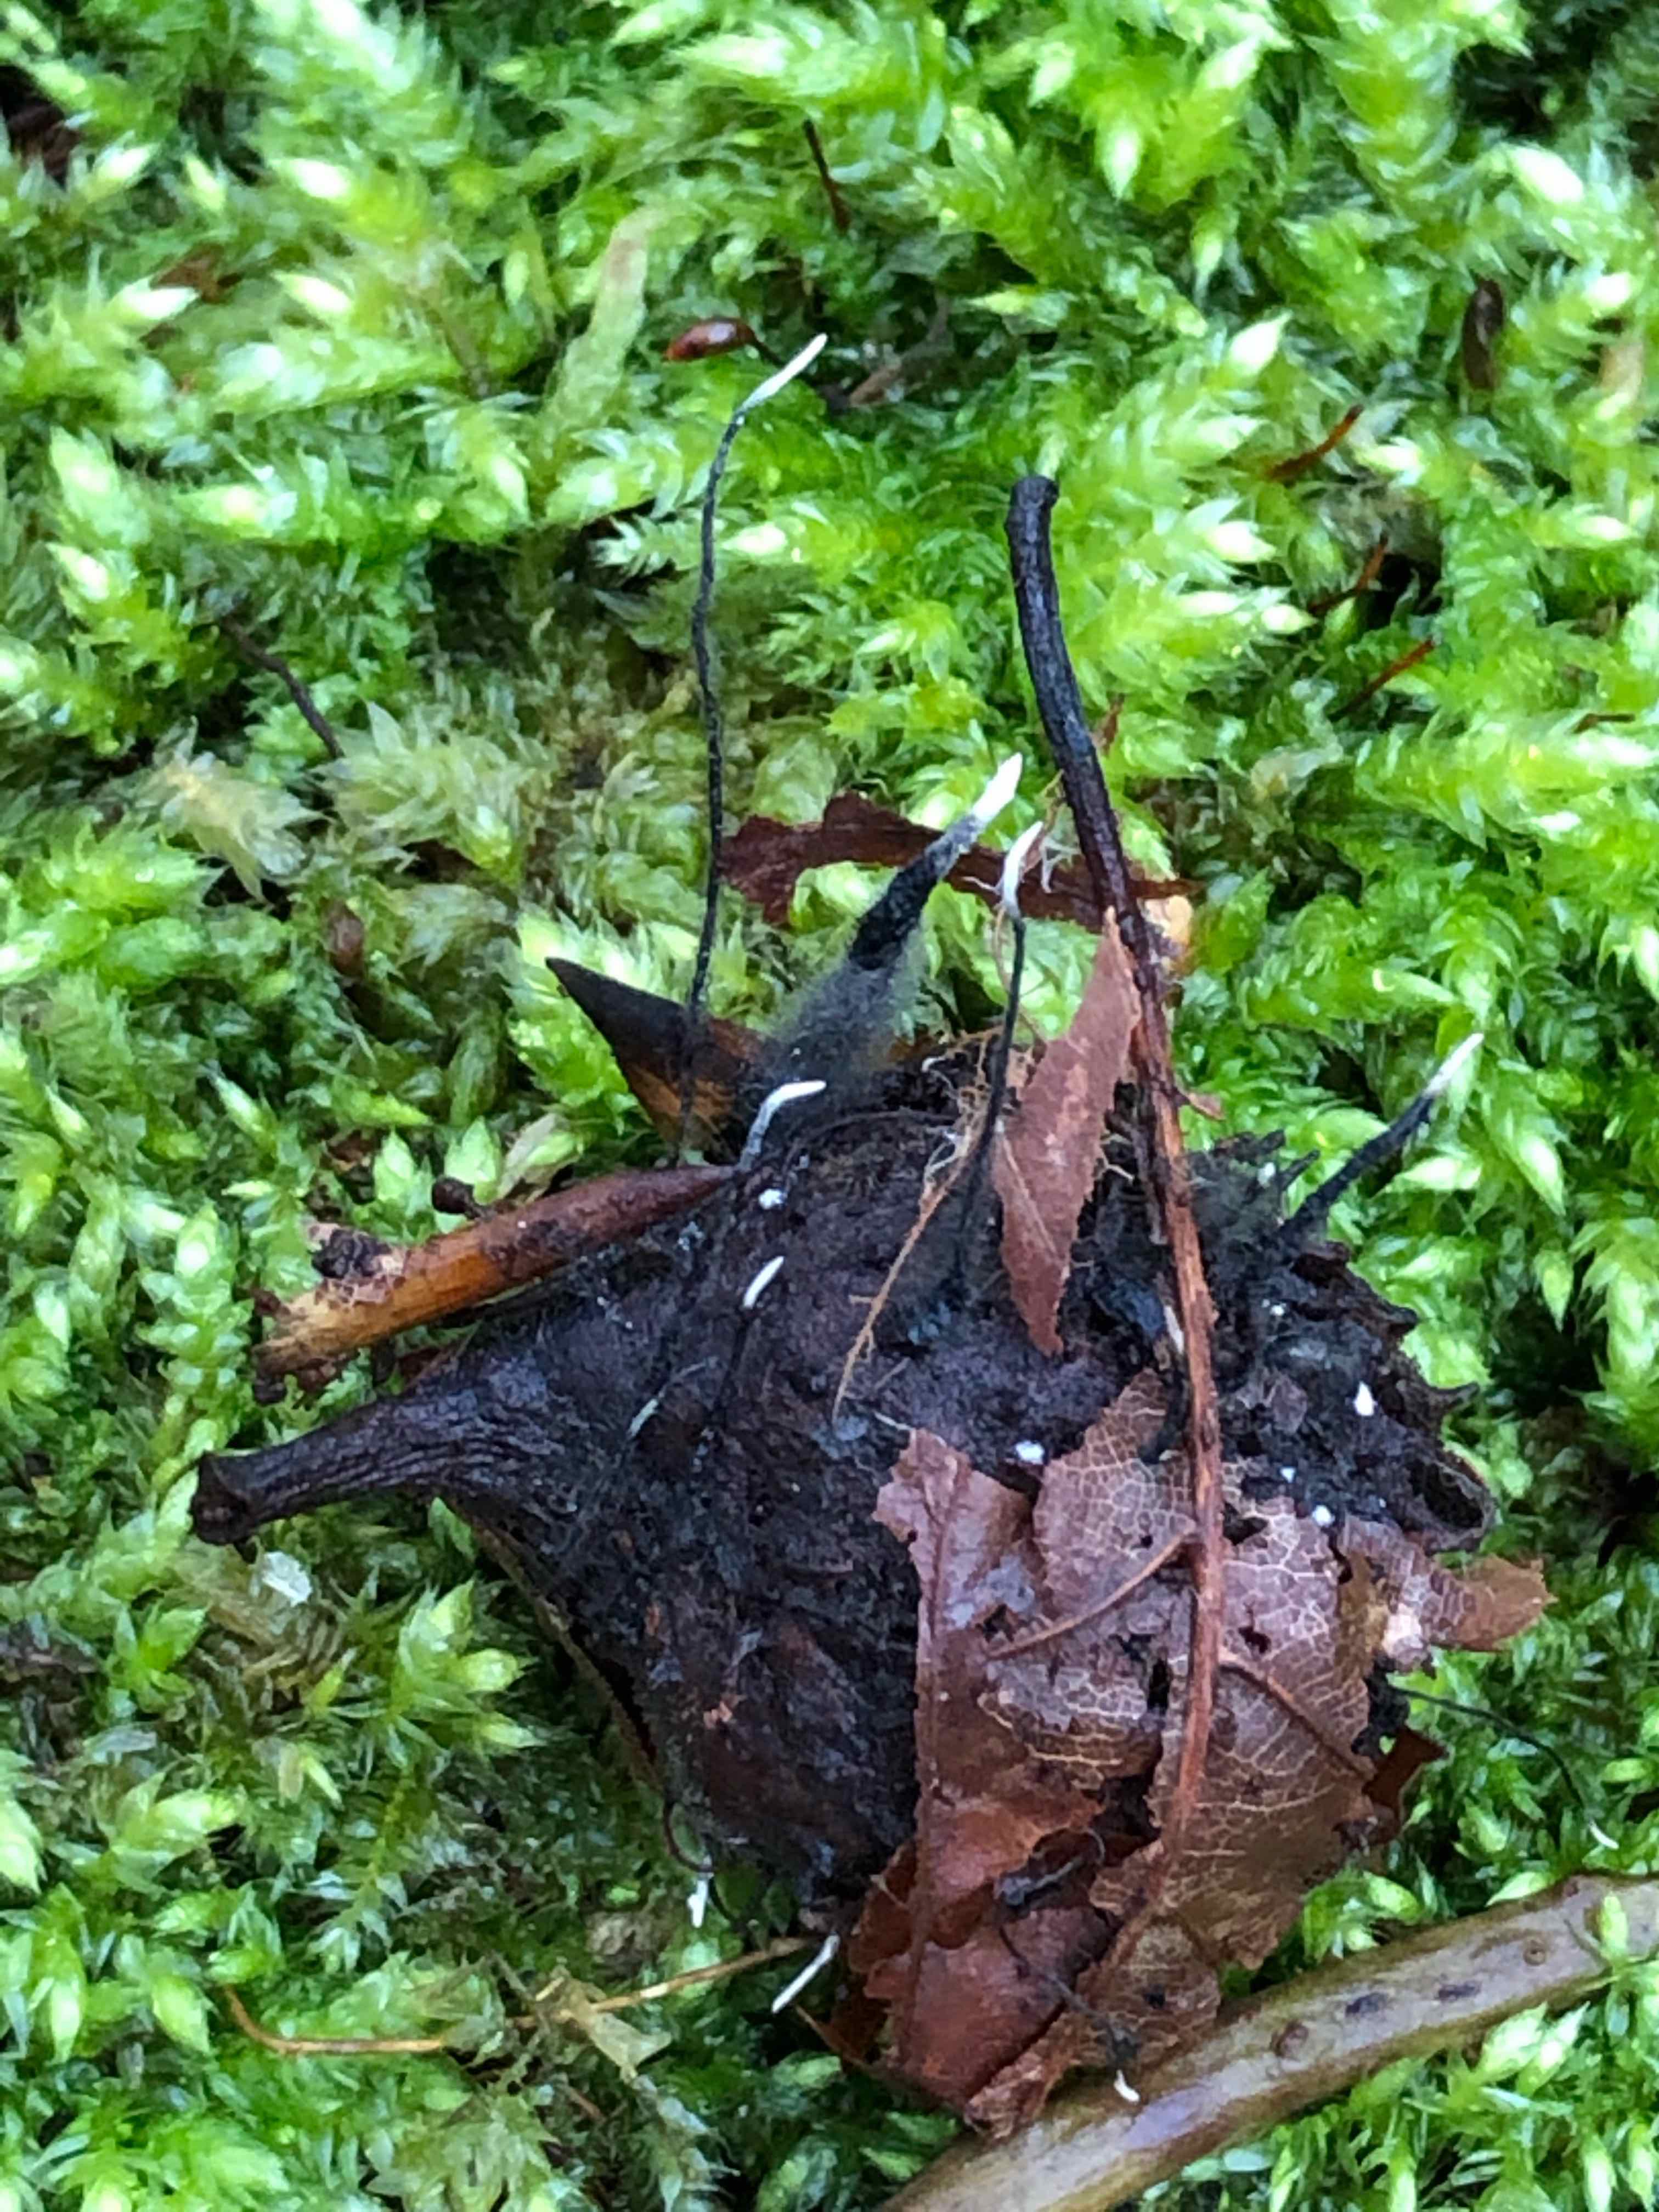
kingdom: Fungi
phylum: Ascomycota
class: Sordariomycetes
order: Xylariales
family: Xylariaceae
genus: Xylaria
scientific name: Xylaria carpophila
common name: bogskål-stødsvamp
